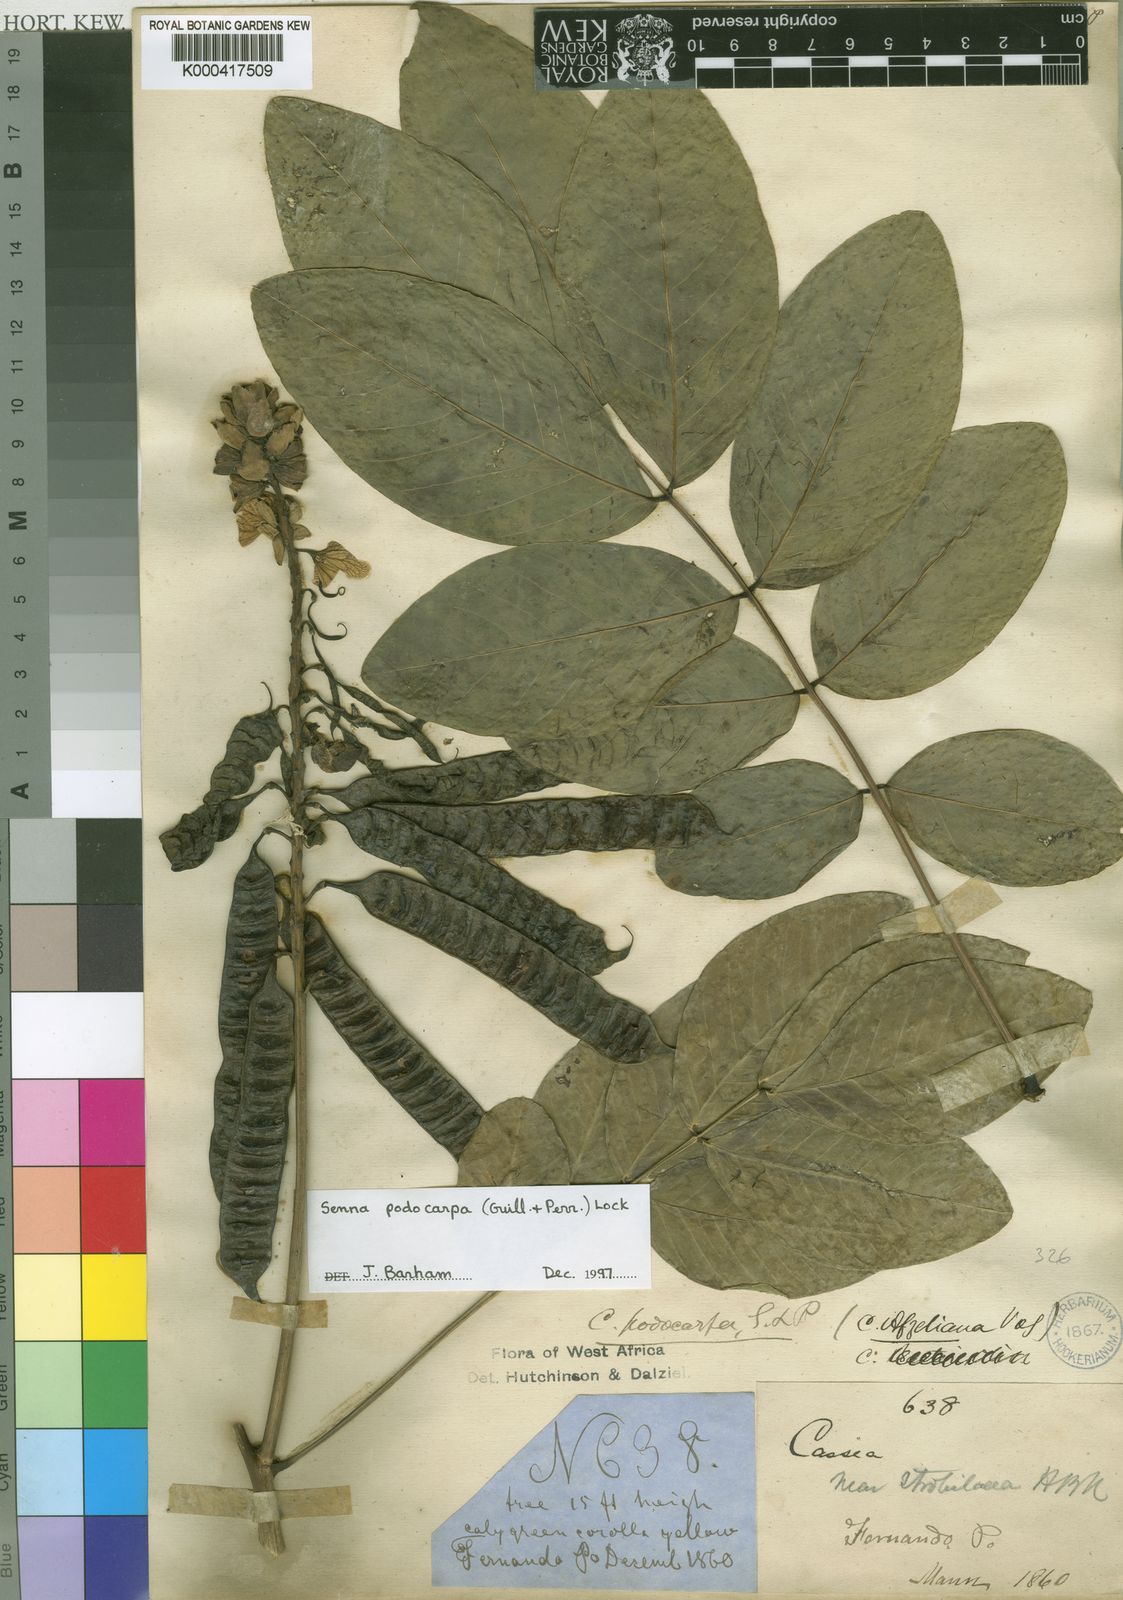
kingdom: Plantae
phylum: Tracheophyta
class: Magnoliopsida
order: Fabales
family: Fabaceae
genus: Senna
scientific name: Senna podocarpa
